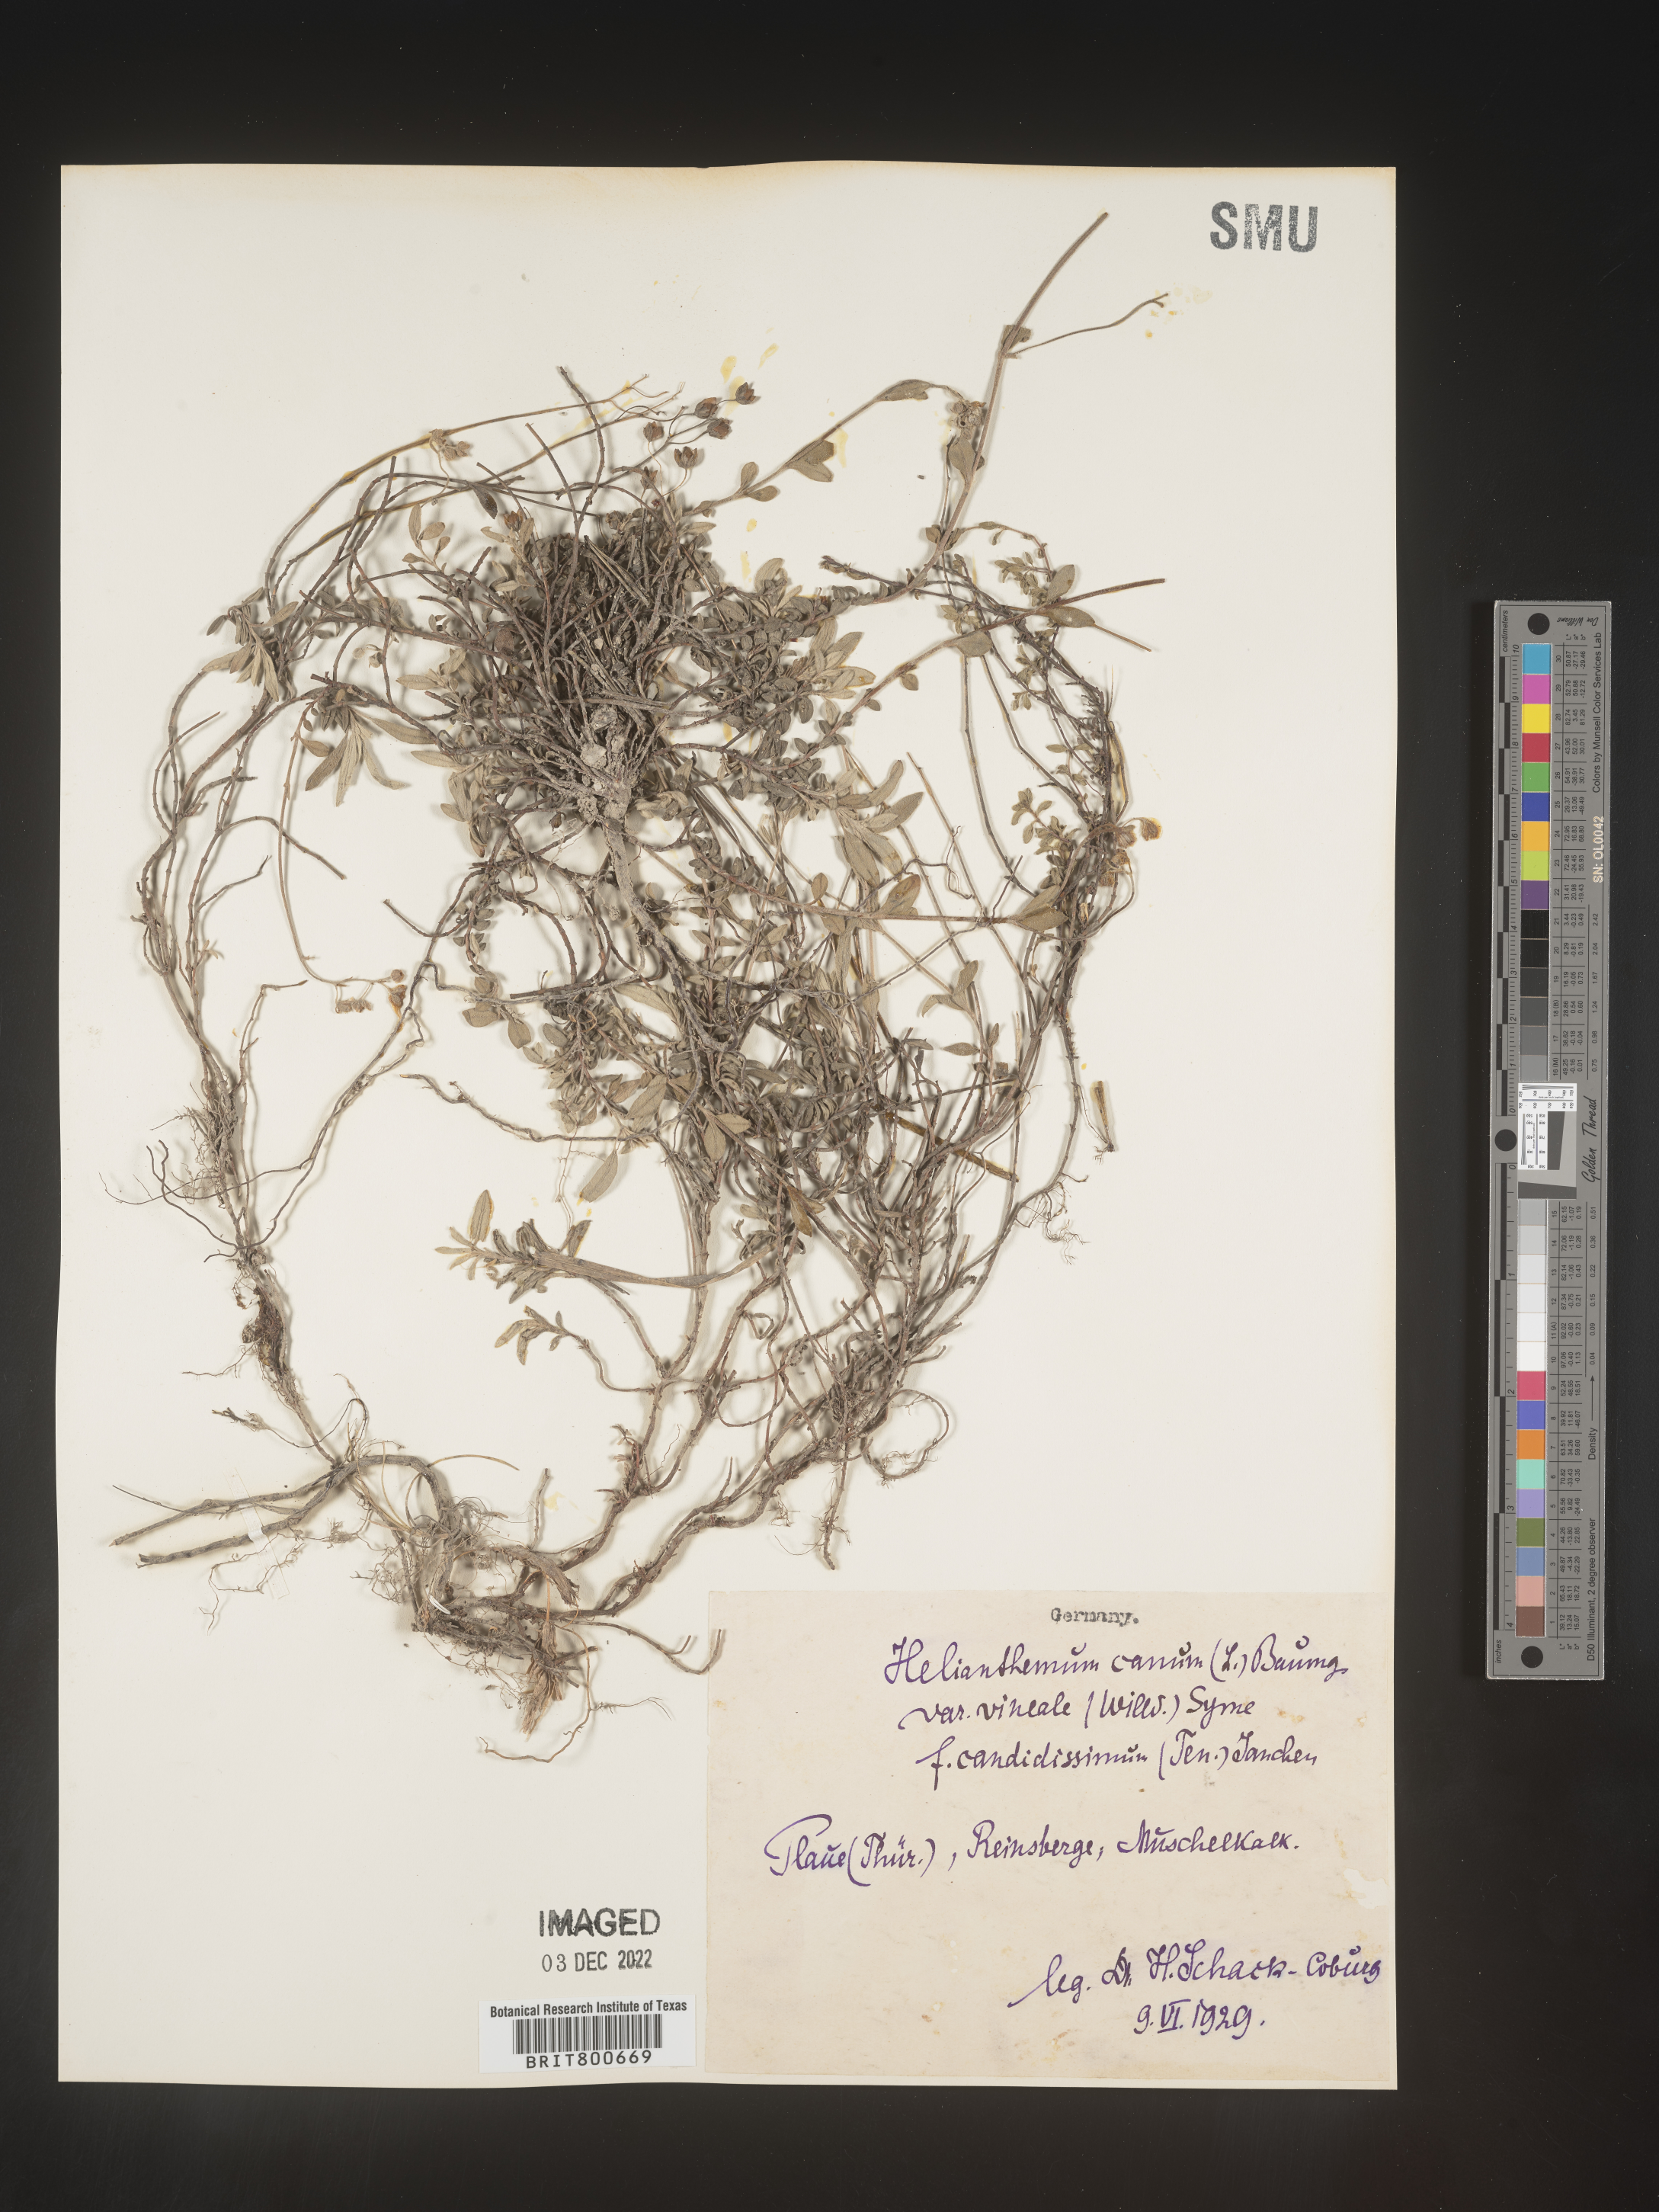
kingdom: Plantae
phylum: Tracheophyta
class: Magnoliopsida
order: Malvales
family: Cistaceae
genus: Helianthemum
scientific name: Helianthemum
